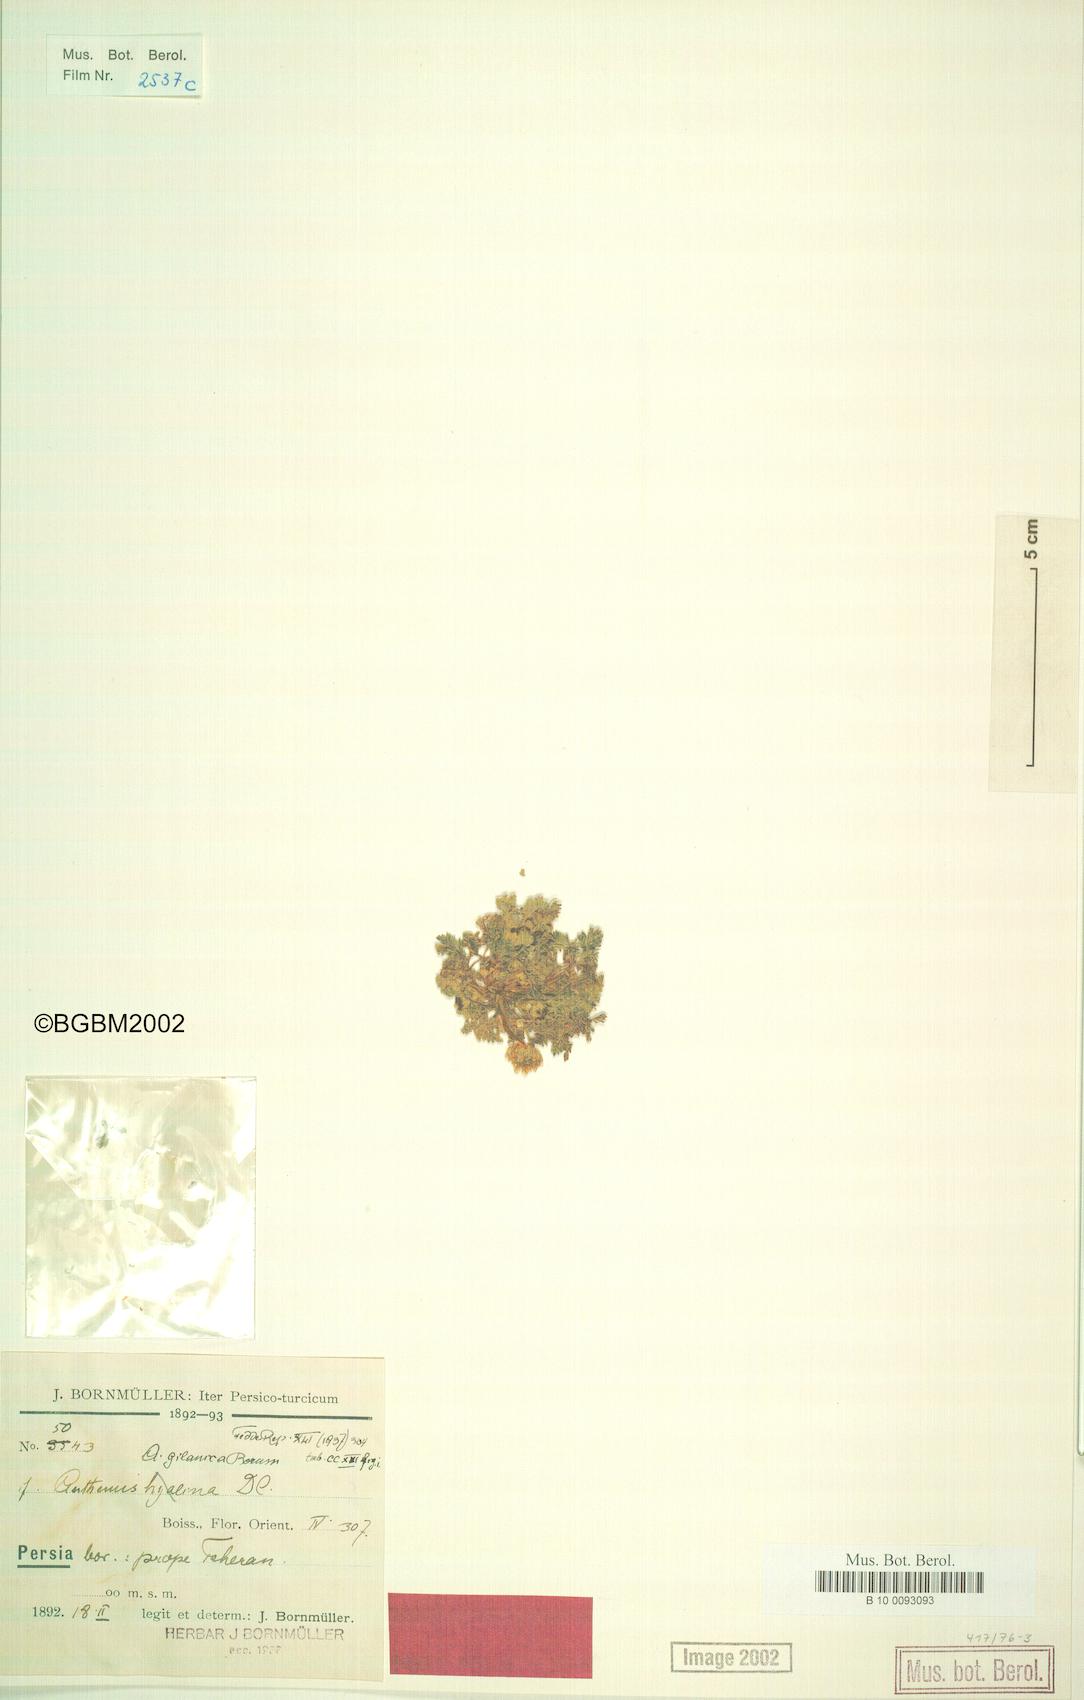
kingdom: Plantae
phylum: Tracheophyta
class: Magnoliopsida
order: Asterales
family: Asteraceae
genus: Anthemis
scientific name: Anthemis gilanica
